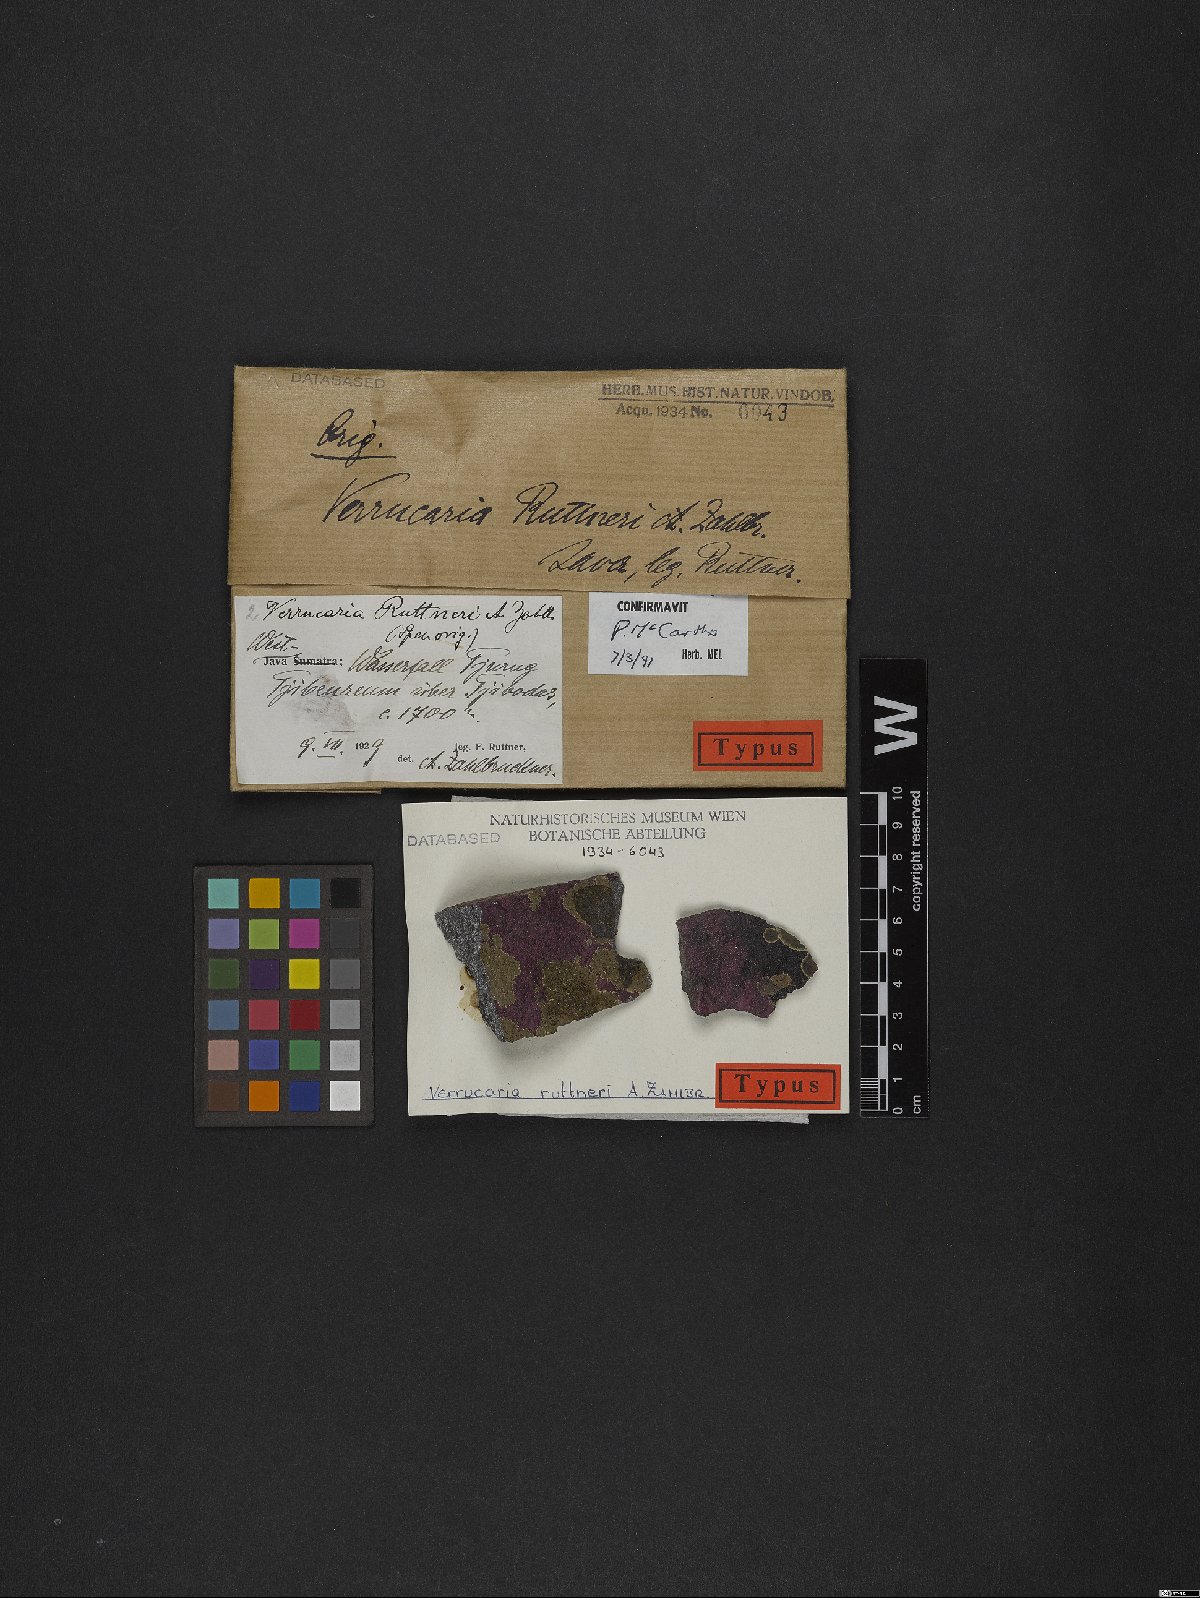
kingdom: Fungi
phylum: Ascomycota
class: Eurotiomycetes
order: Verrucariales
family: Verrucariaceae
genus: Verrucaria
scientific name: Verrucaria
